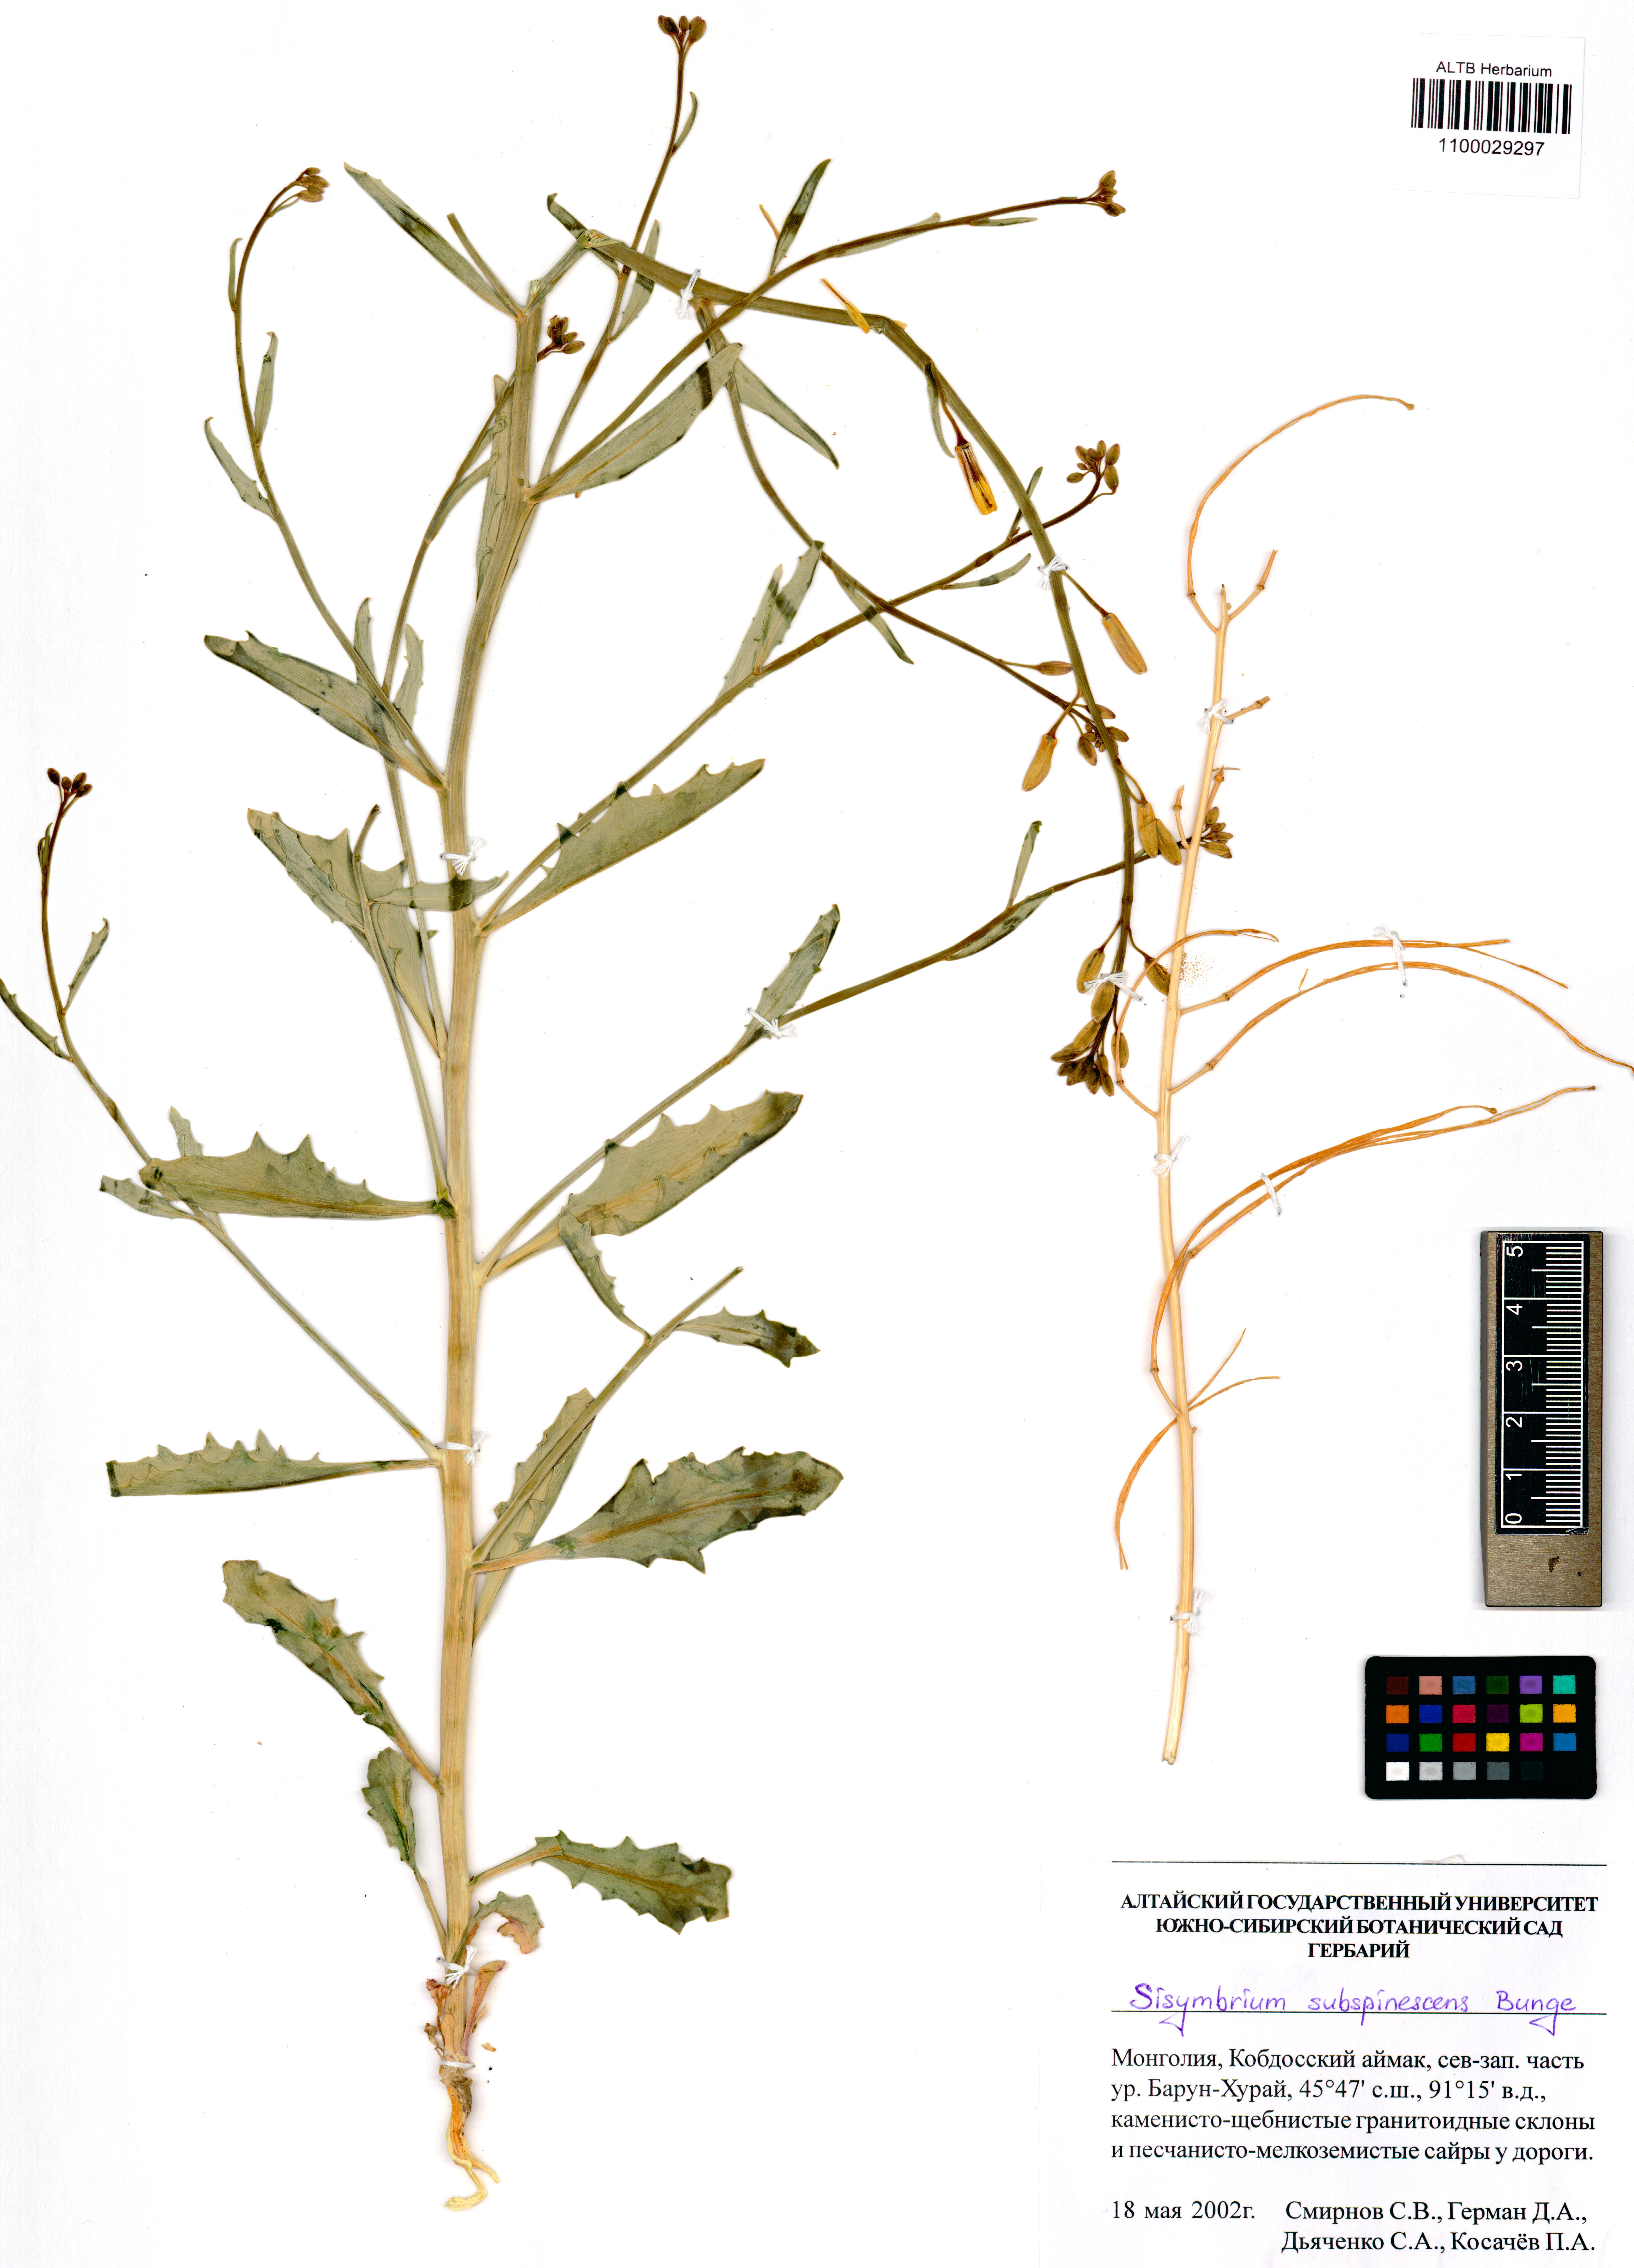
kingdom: Plantae
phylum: Tracheophyta
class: Magnoliopsida
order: Brassicales
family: Brassicaceae
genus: Sisymbrium
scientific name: Sisymbrium subspinescens
